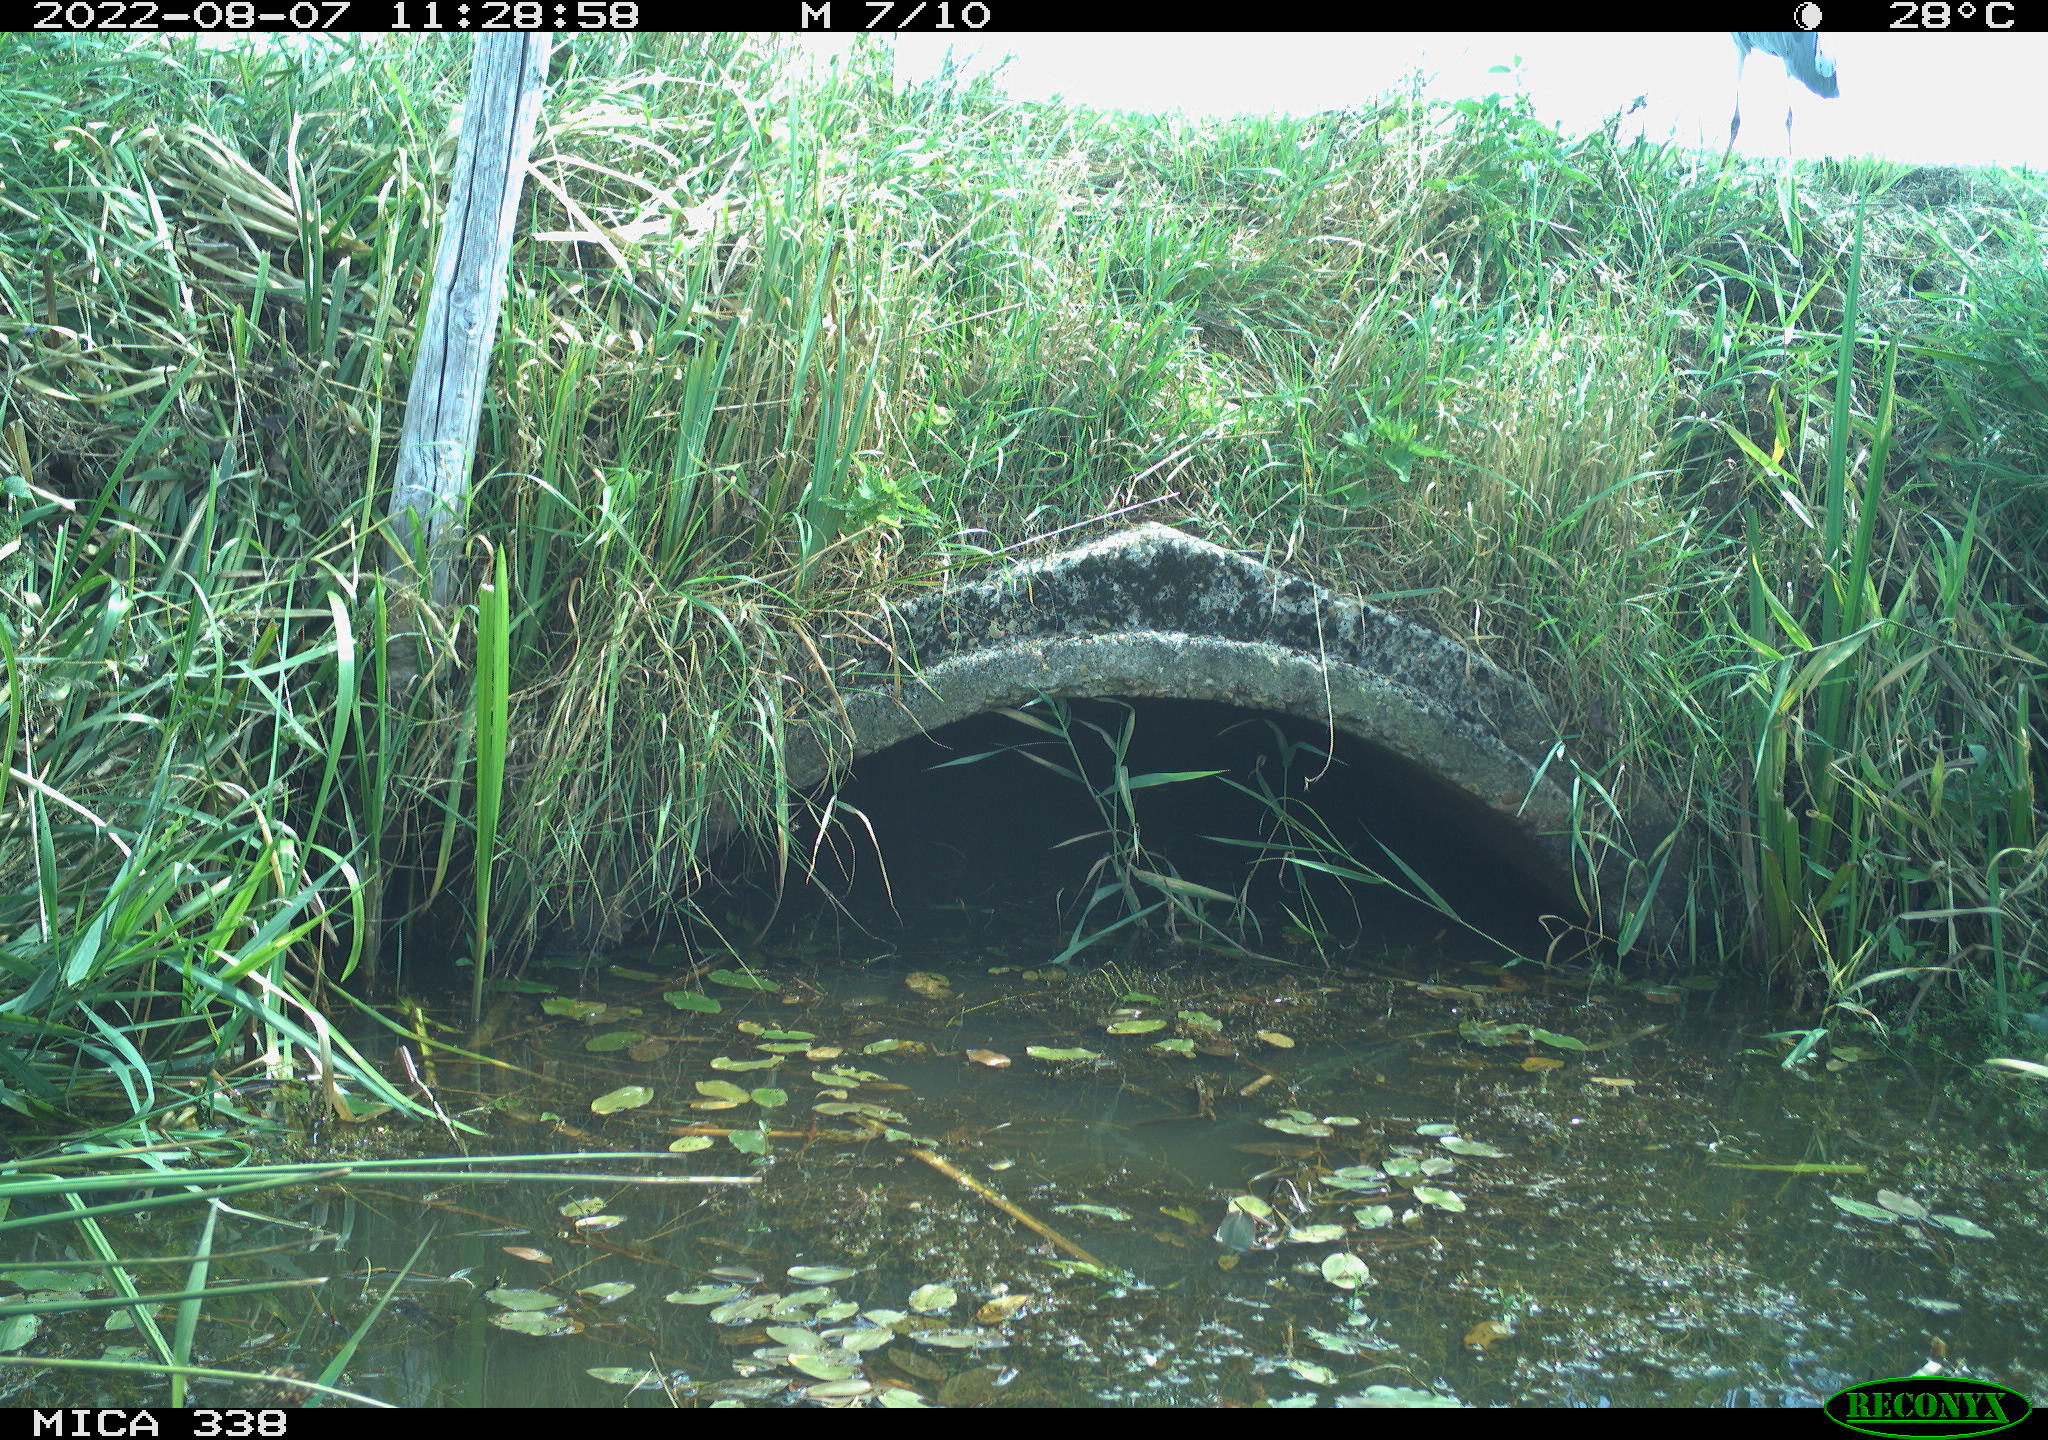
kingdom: Animalia
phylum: Chordata
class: Aves
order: Pelecaniformes
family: Ardeidae
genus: Ardea
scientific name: Ardea cinerea
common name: Grey heron
